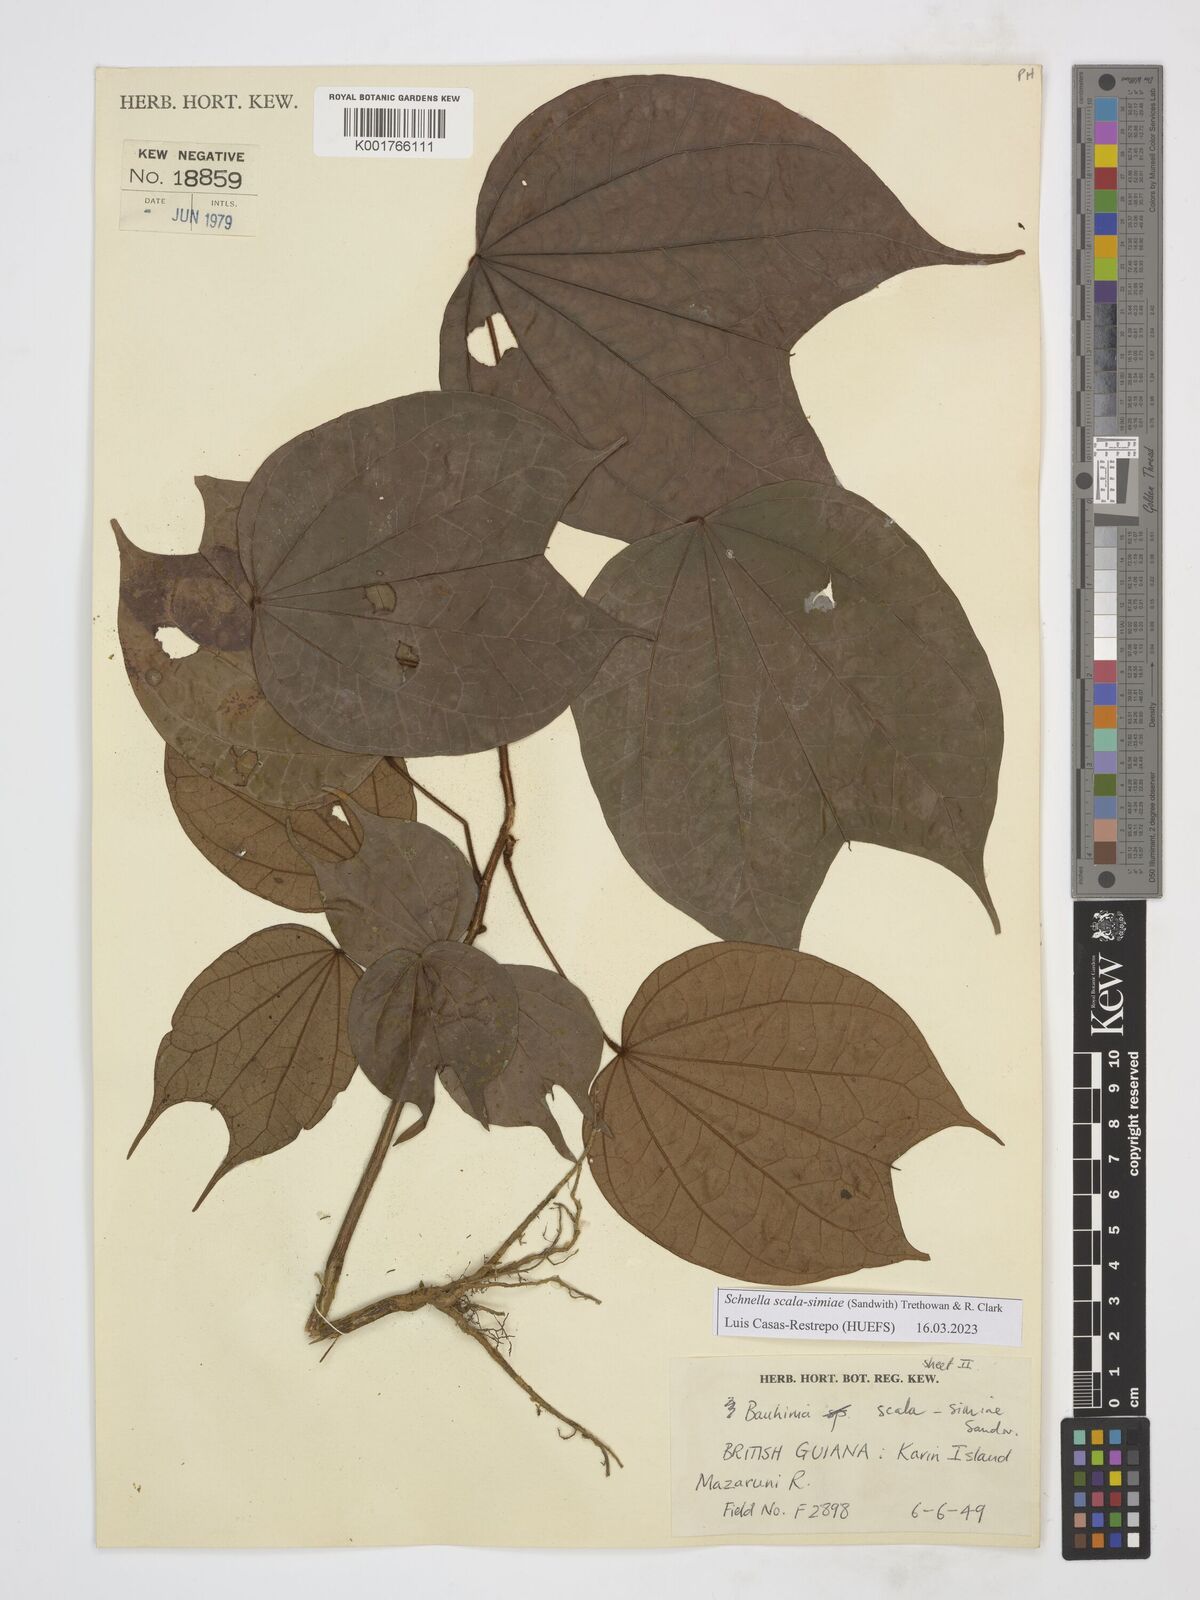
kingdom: Plantae
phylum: Tracheophyta
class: Magnoliopsida
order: Fabales
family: Fabaceae
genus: Schnella
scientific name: Schnella scala-simiae
